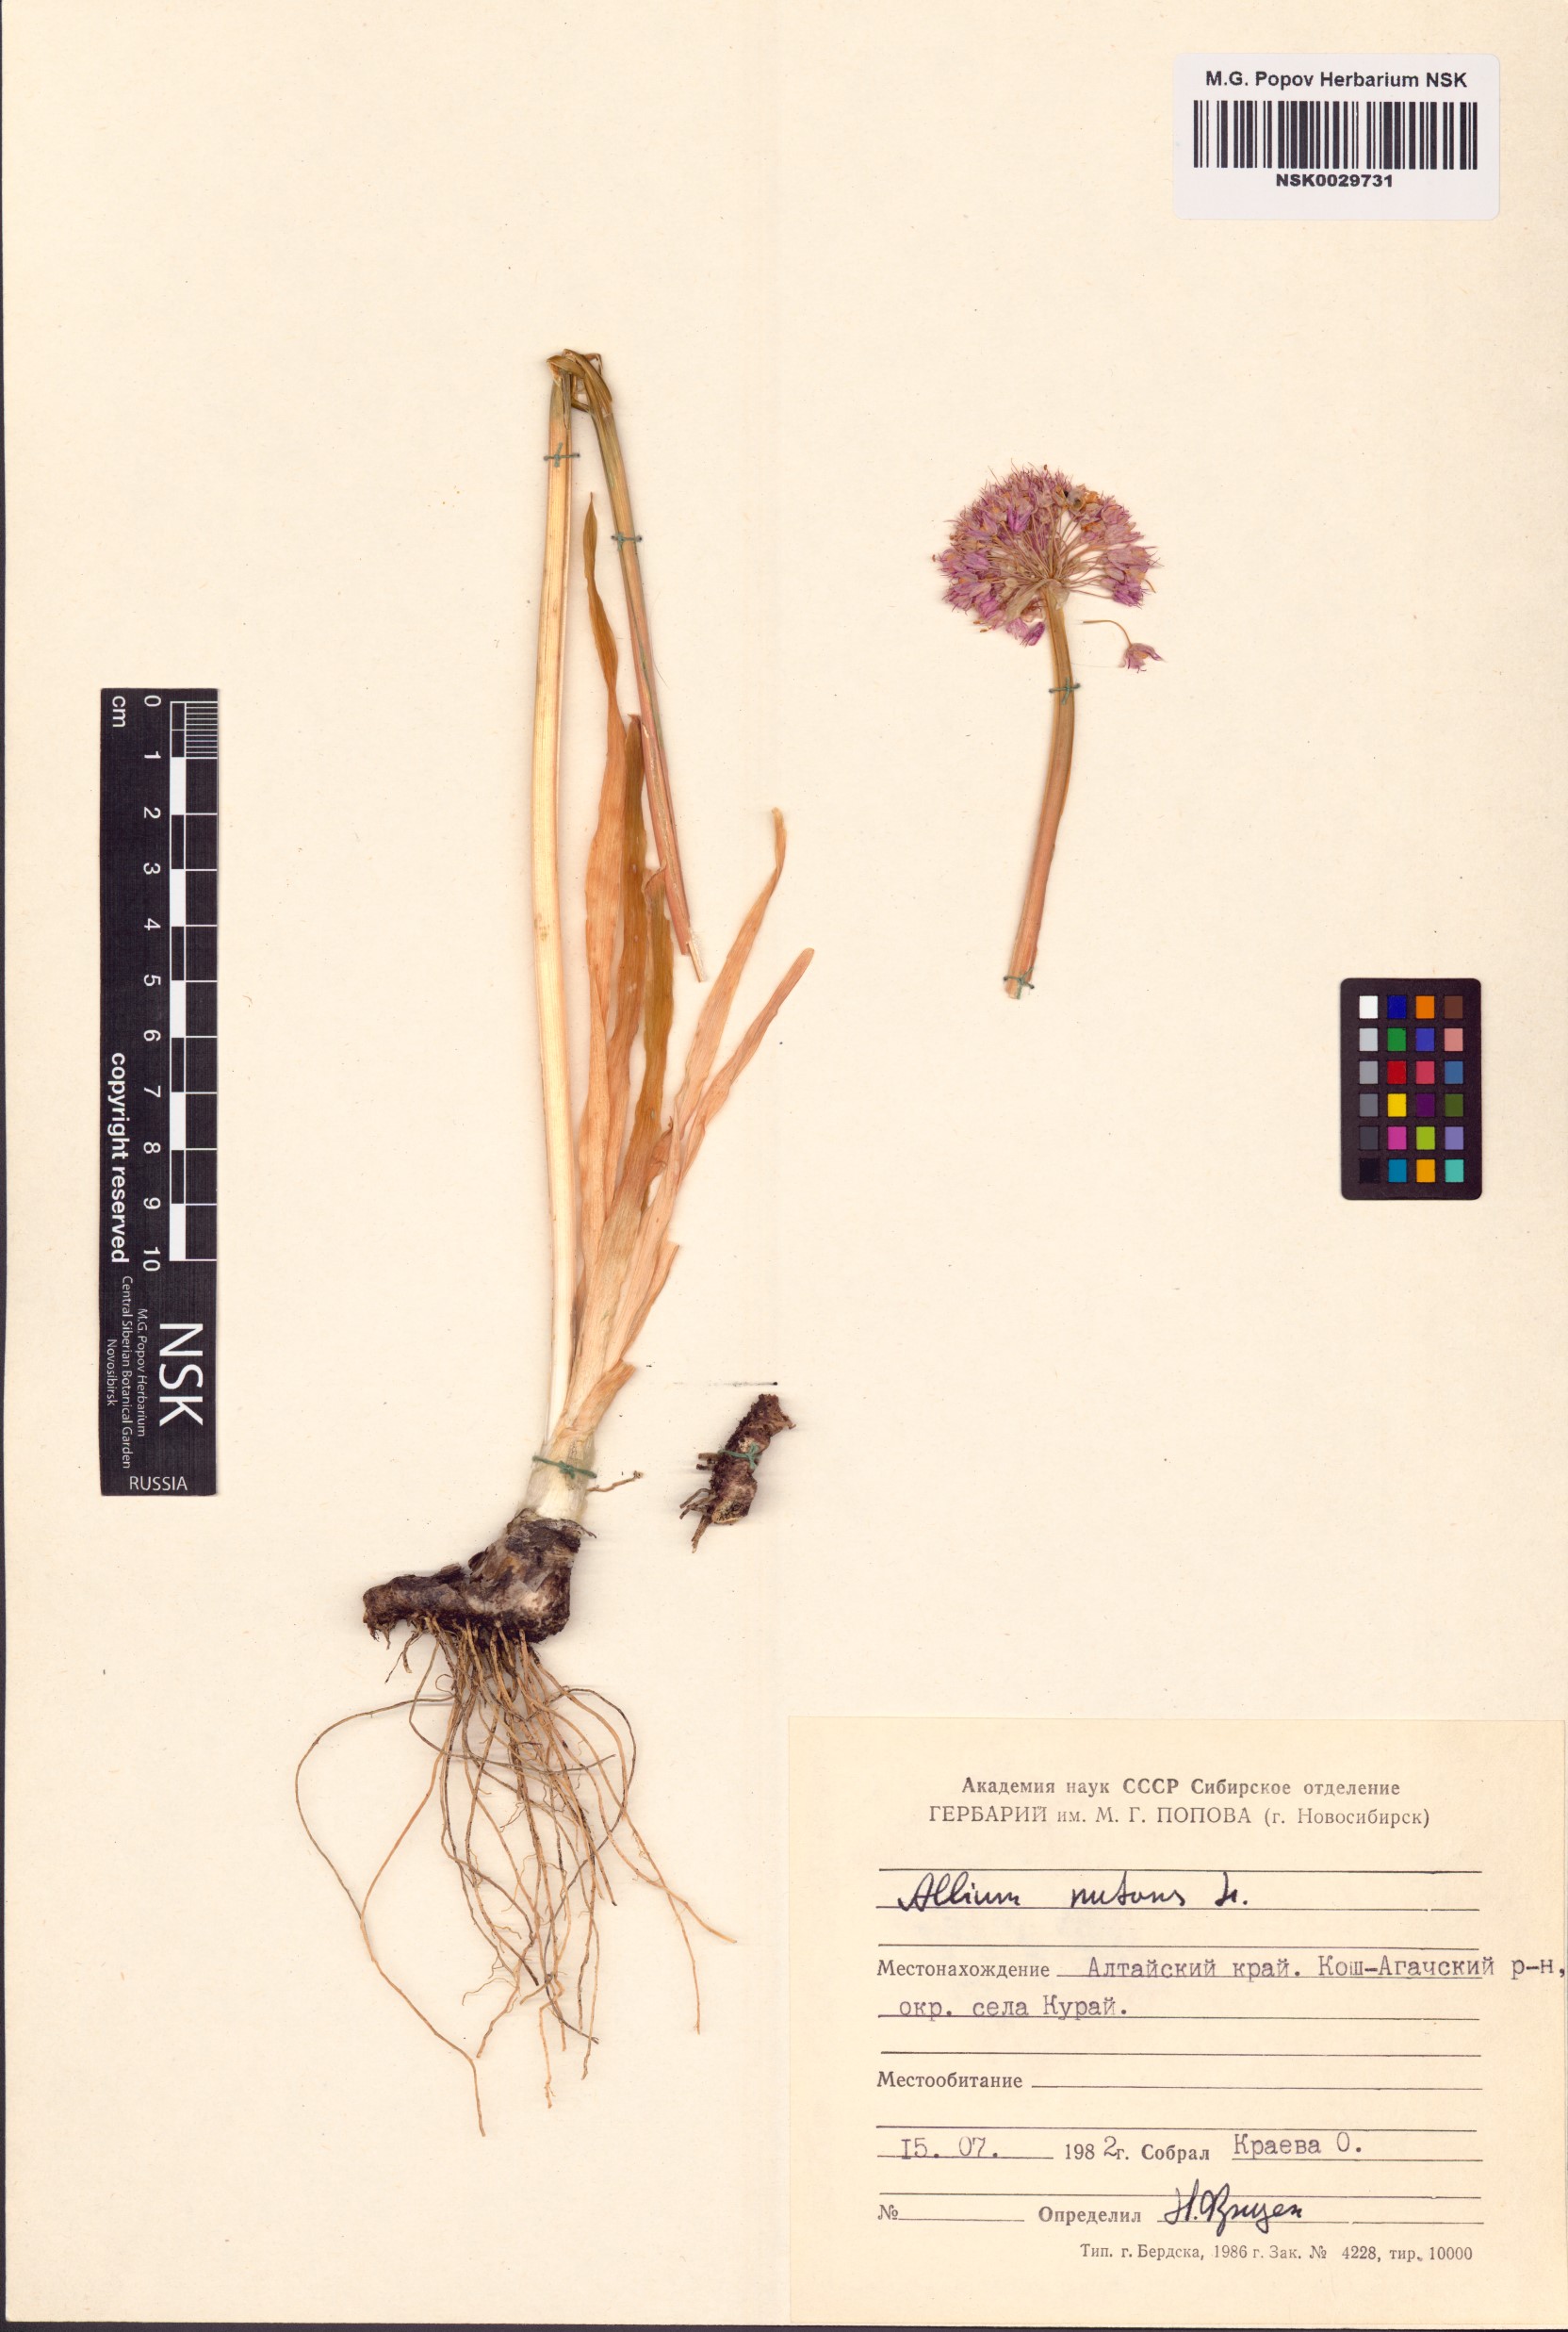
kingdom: Plantae
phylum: Tracheophyta
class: Liliopsida
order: Asparagales
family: Amaryllidaceae
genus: Allium
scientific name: Allium nutans
